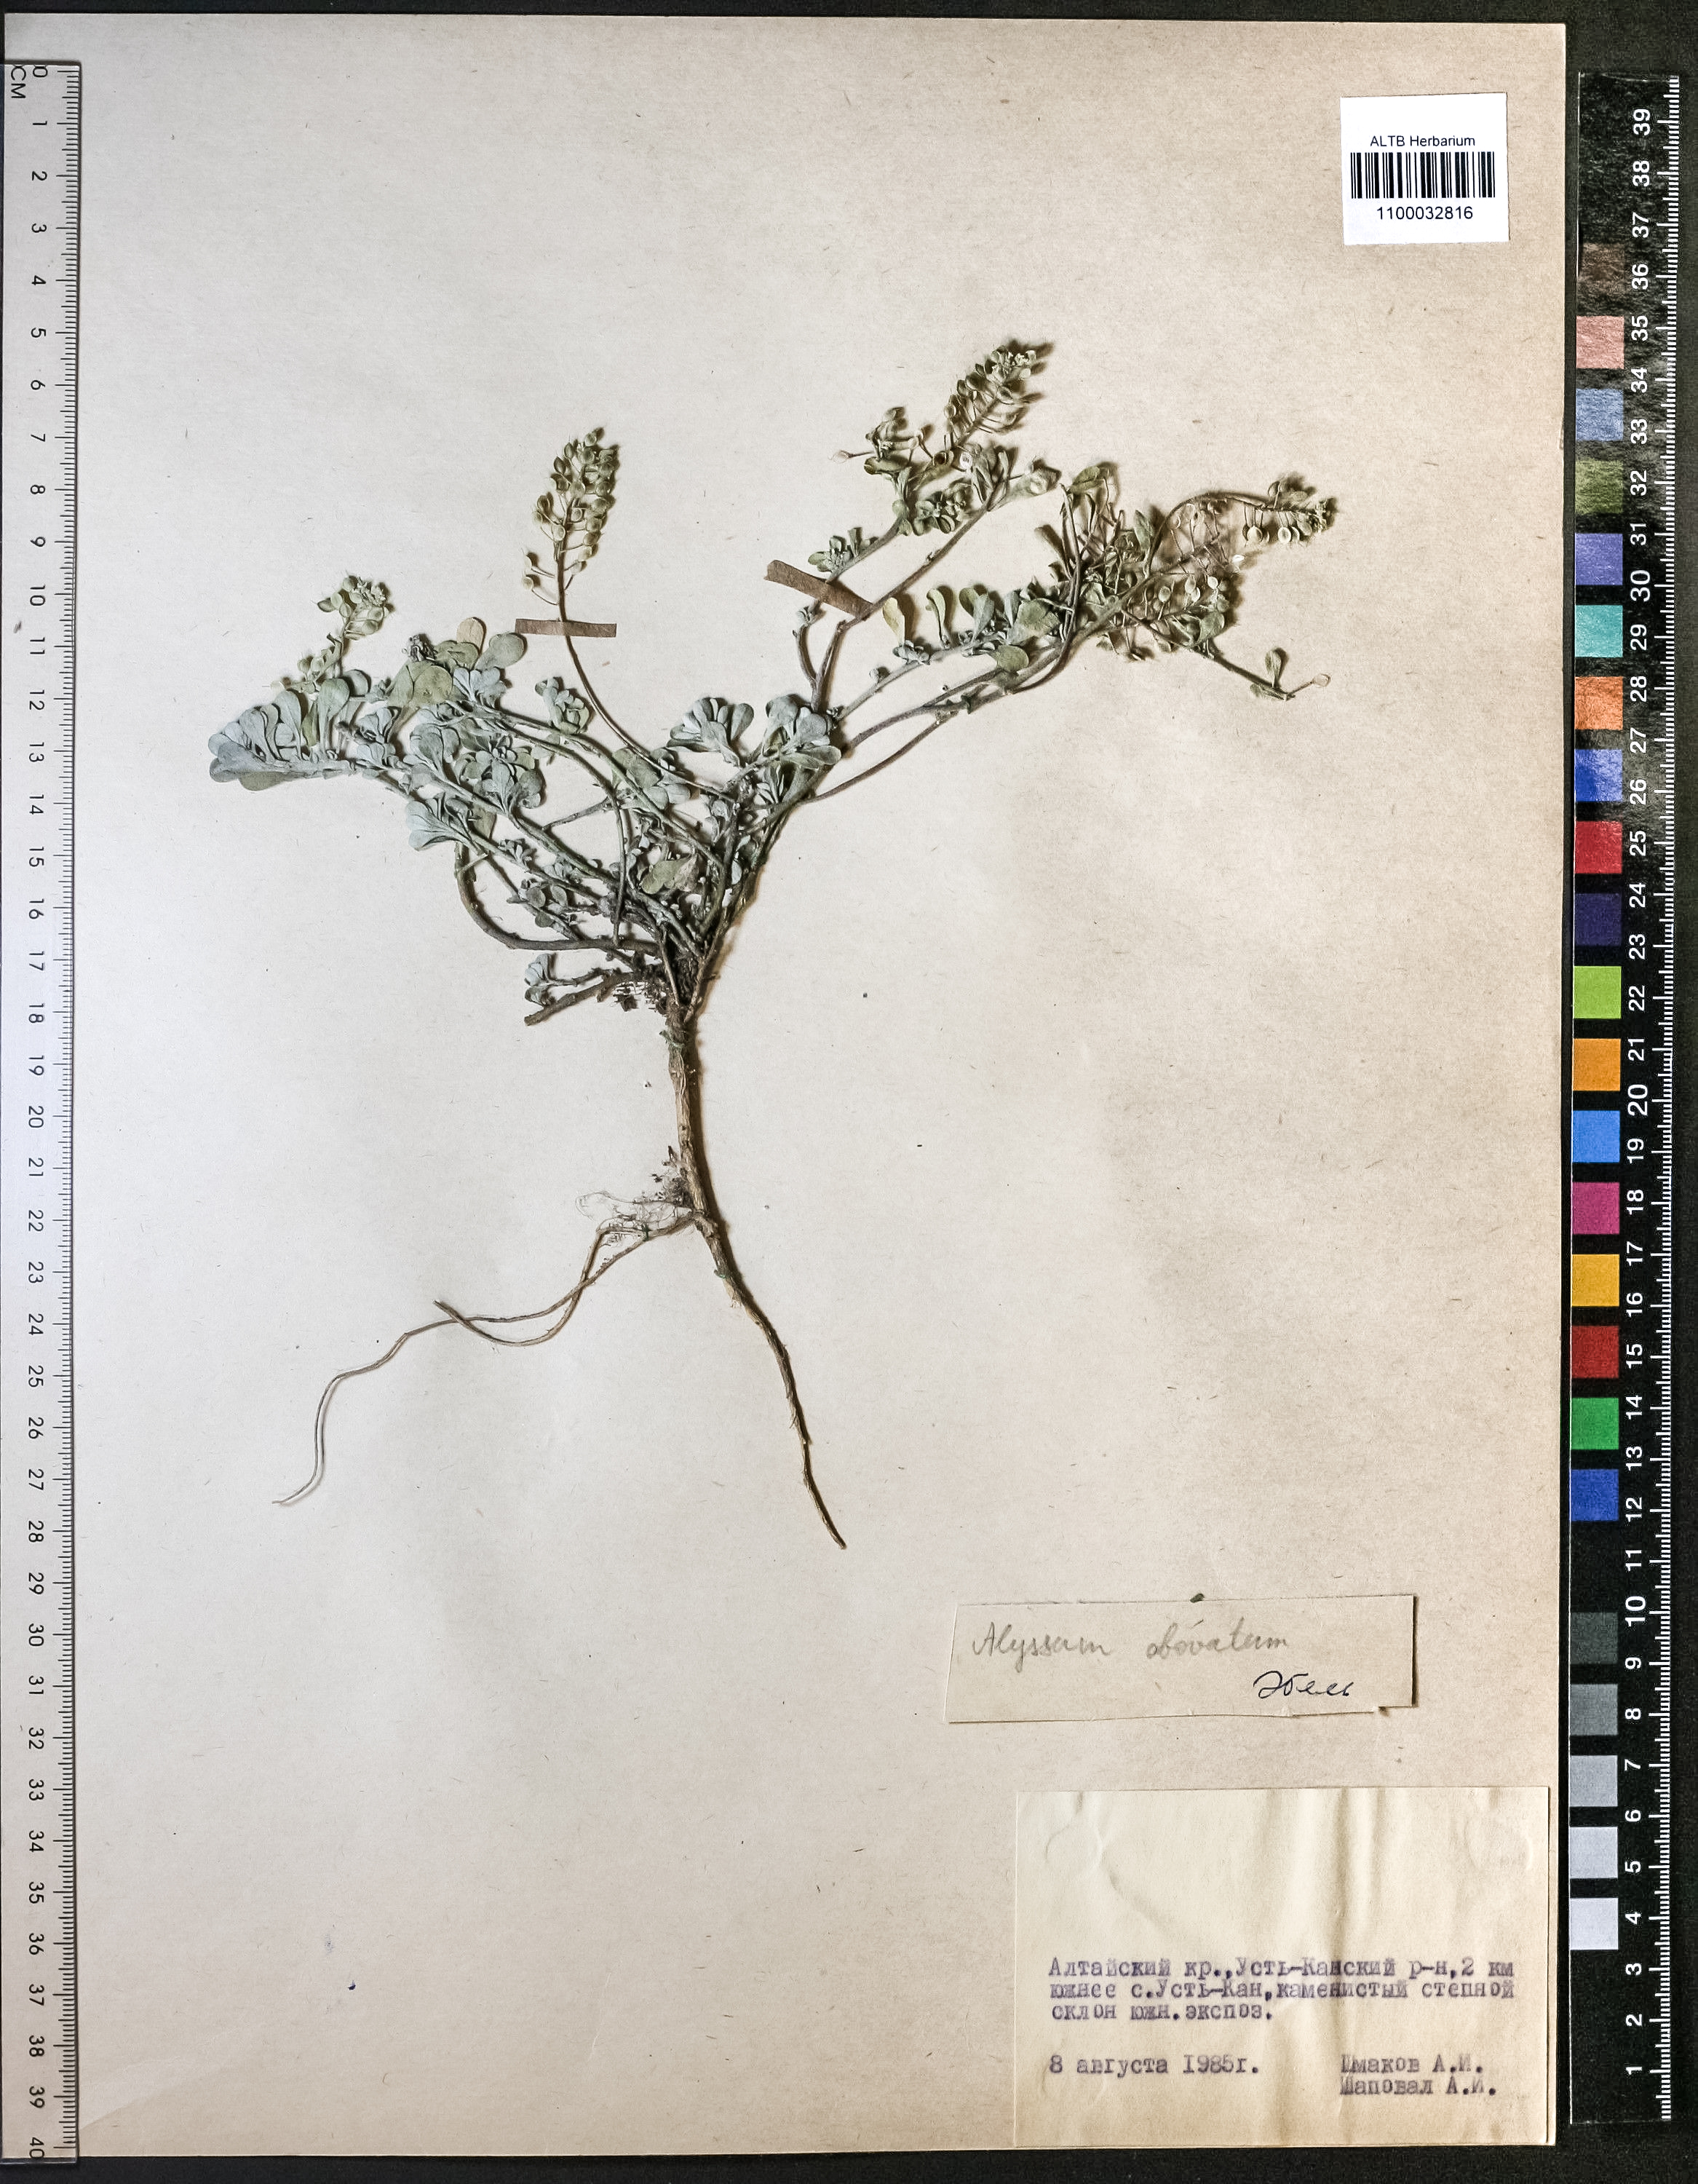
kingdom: Plantae
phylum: Tracheophyta
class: Magnoliopsida
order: Brassicales
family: Brassicaceae
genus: Odontarrhena
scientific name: Odontarrhena obovata
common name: American alyssum
